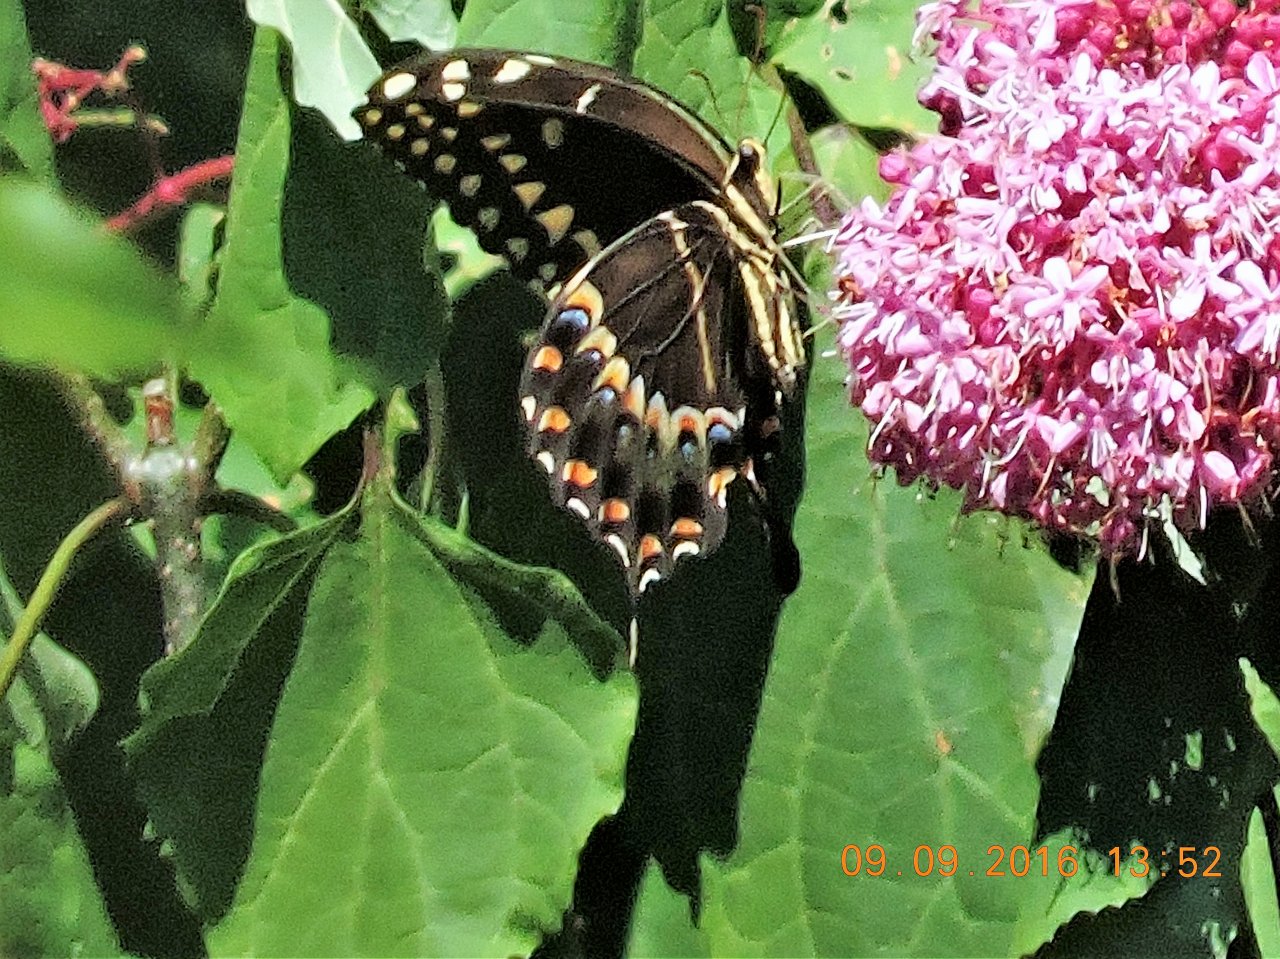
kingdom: Animalia
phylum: Arthropoda
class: Insecta
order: Lepidoptera
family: Papilionidae
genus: Pterourus
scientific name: Pterourus palamedes
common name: Palamedes Swallowtail
